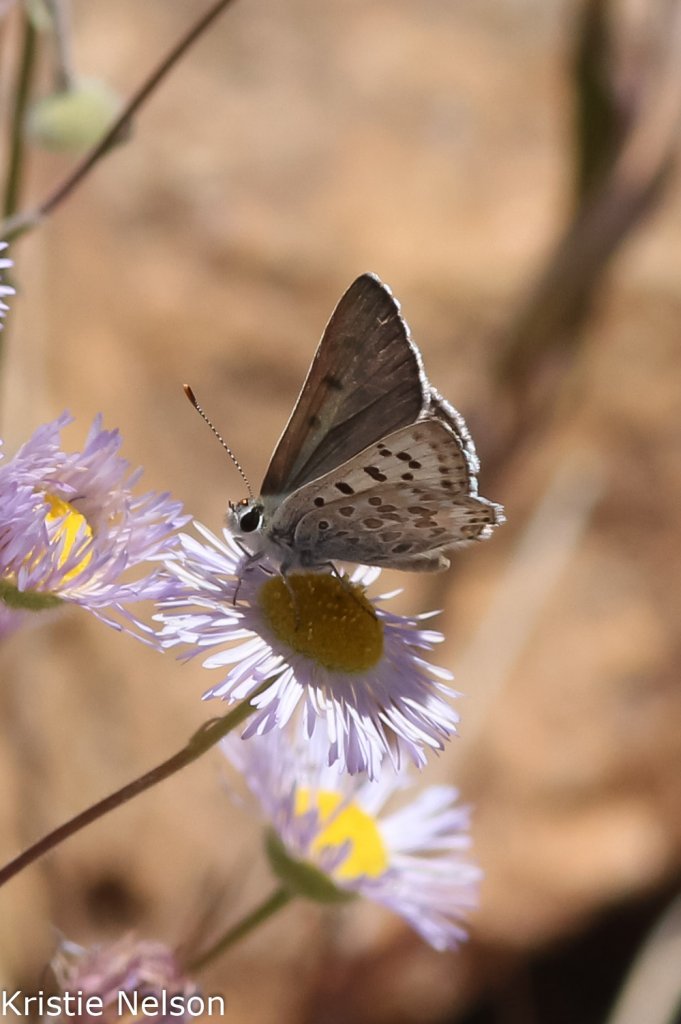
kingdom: Animalia
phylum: Arthropoda
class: Insecta
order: Lepidoptera
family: Lycaenidae
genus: Lycaena
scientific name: Lycaena editha
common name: Edith's Copper
